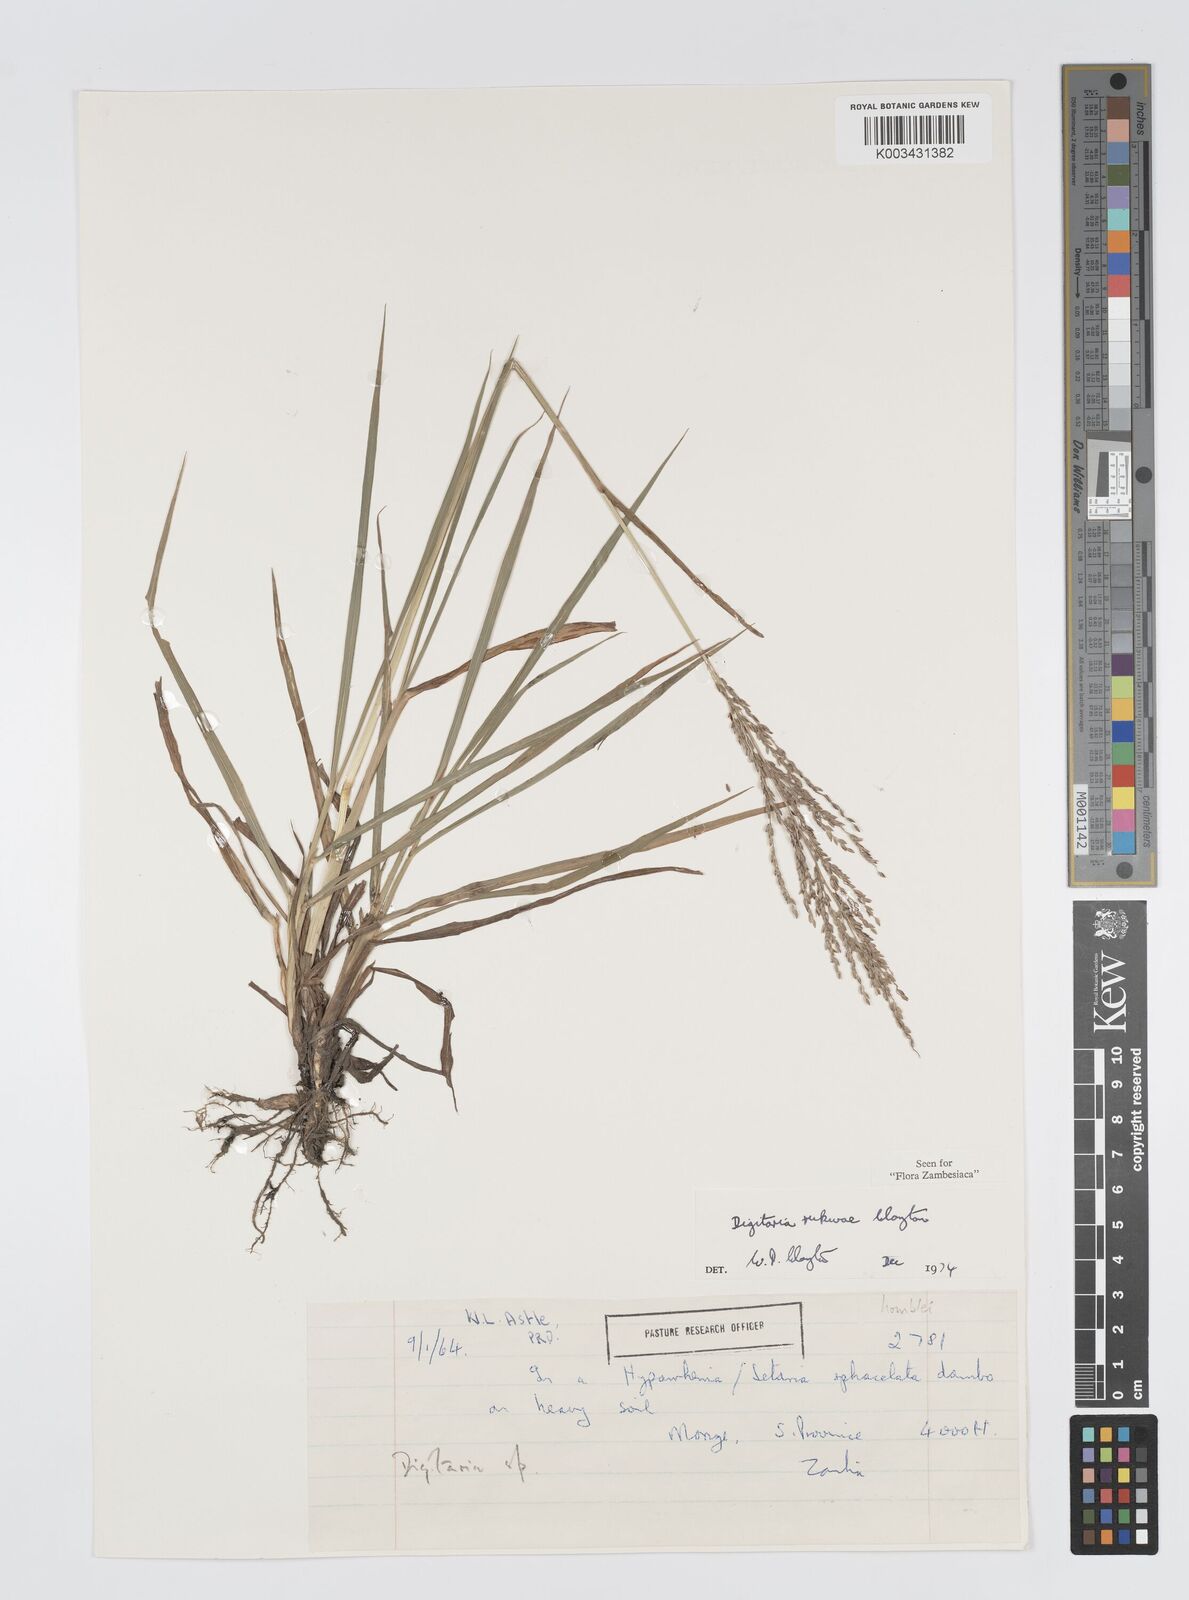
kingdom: Plantae
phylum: Tracheophyta
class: Liliopsida
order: Poales
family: Poaceae
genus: Digitaria
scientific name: Digitaria rukwae
